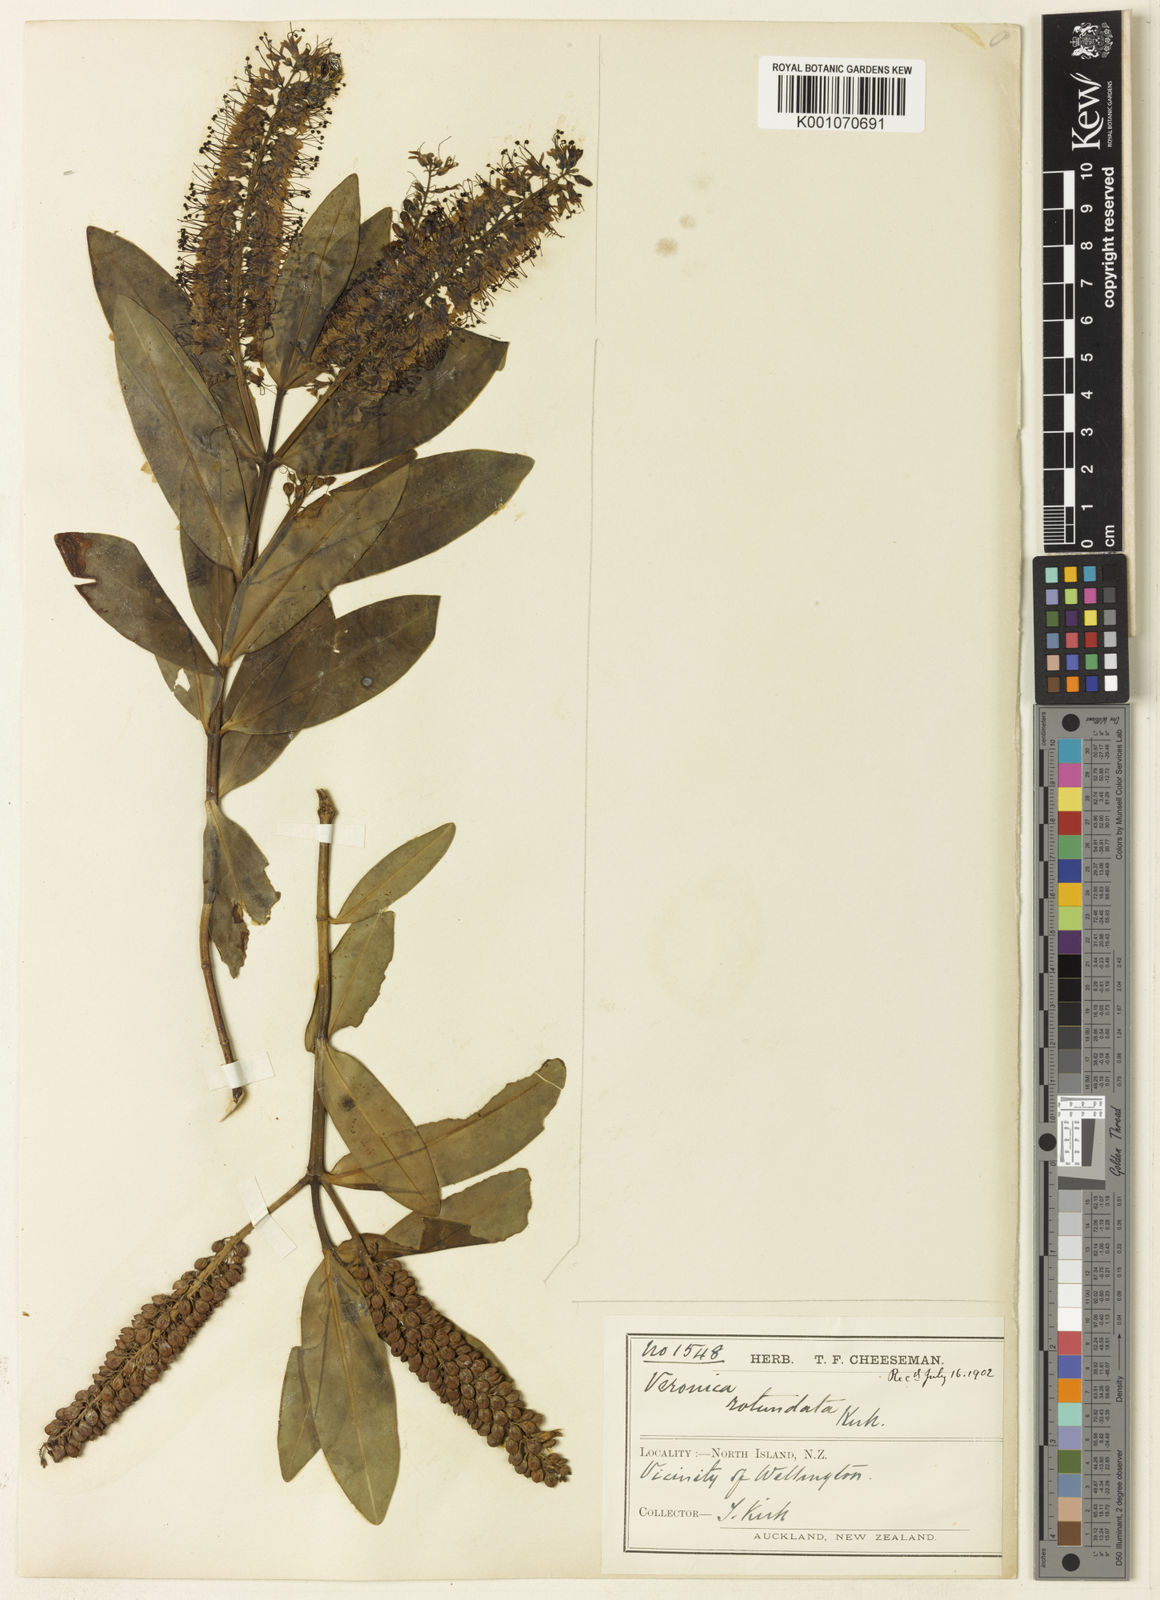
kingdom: Plantae
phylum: Tracheophyta
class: Magnoliopsida
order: Lamiales
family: Plantaginaceae
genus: Veronica
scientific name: Veronica rotundata
